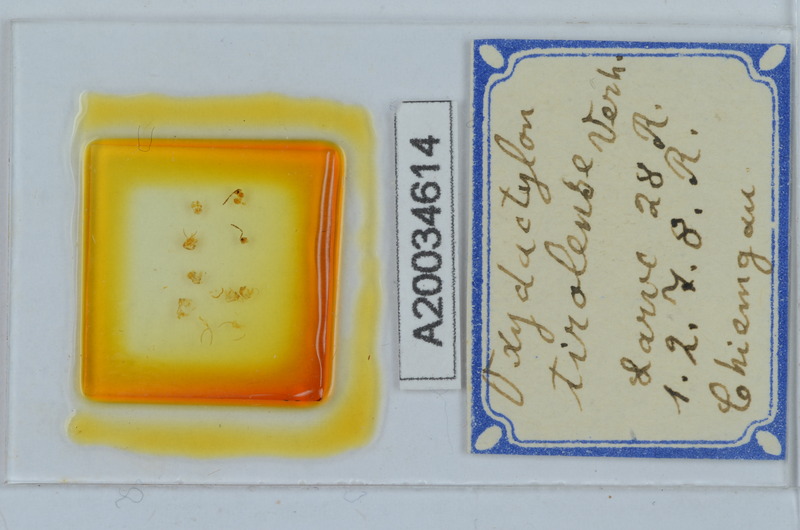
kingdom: Animalia
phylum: Arthropoda
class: Diplopoda
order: Chordeumatida
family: Craspedosomatidae
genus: Oxydactylon
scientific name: Oxydactylon tirolense
